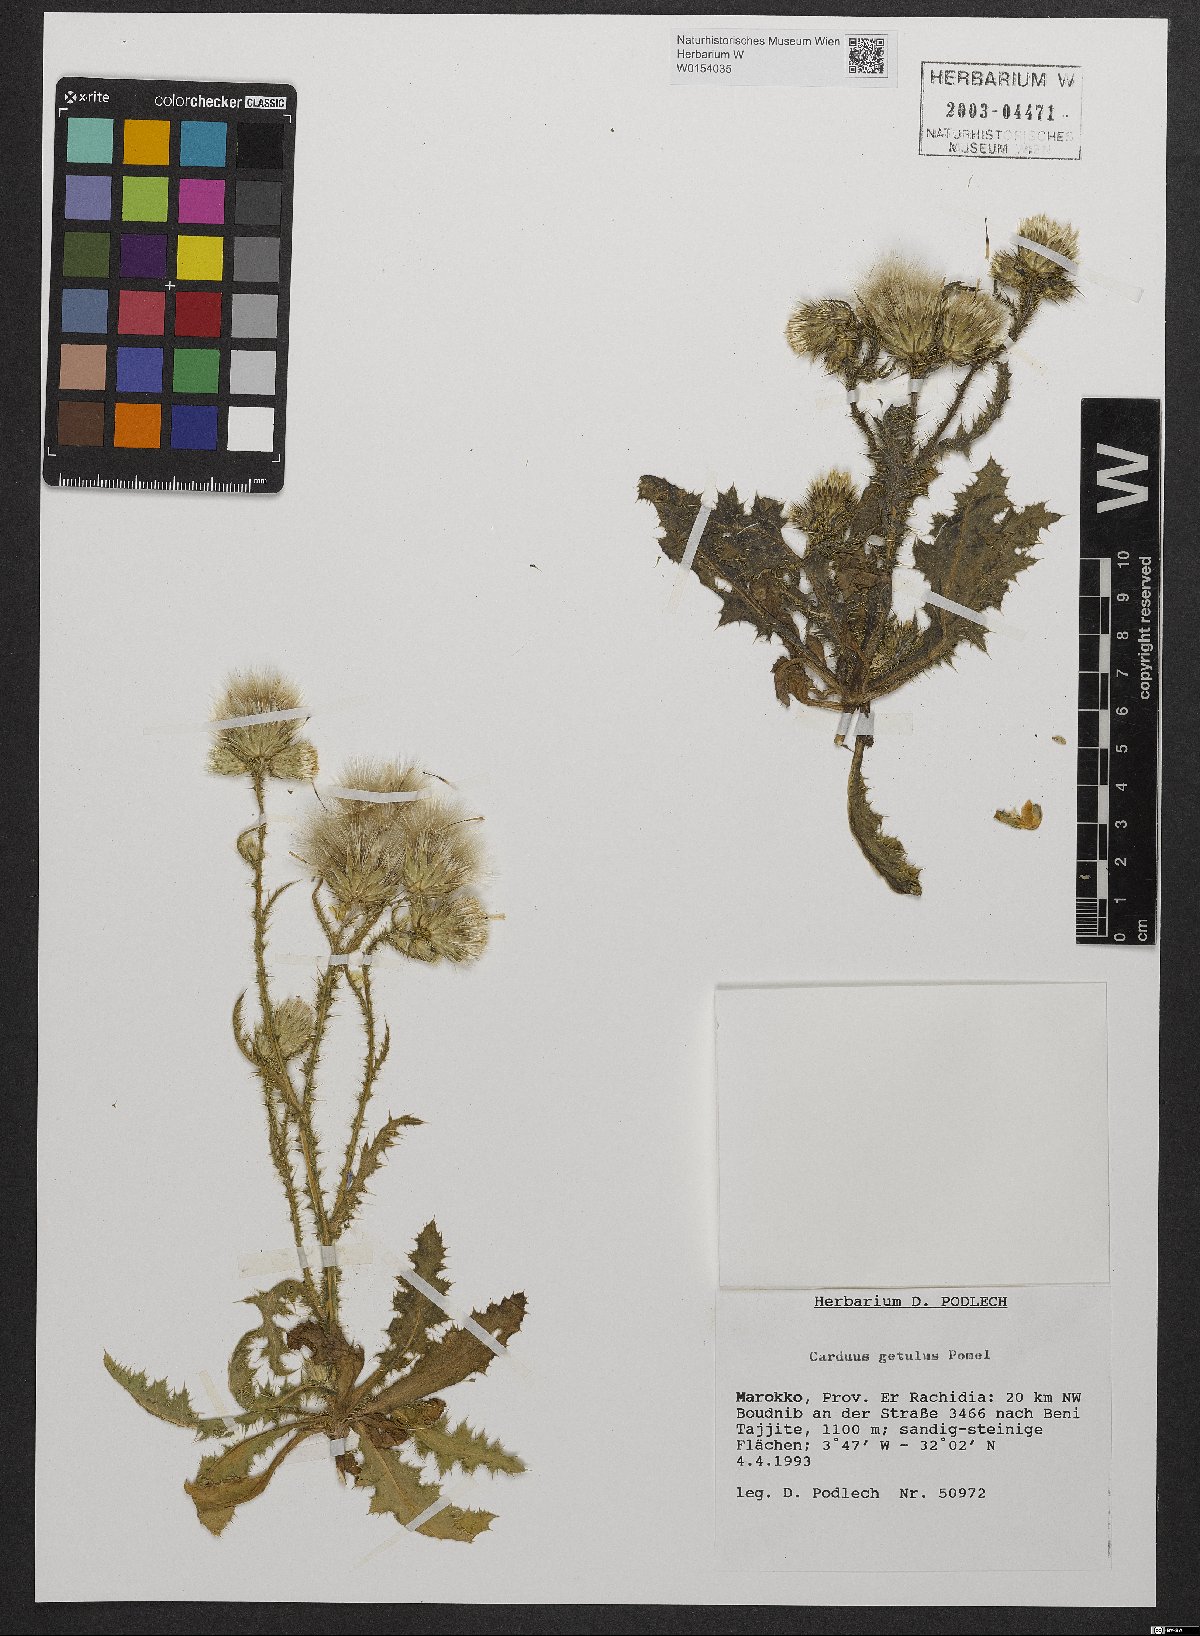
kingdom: Plantae
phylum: Tracheophyta
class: Magnoliopsida
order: Asterales
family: Asteraceae
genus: Carduus
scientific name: Carduus getulus
